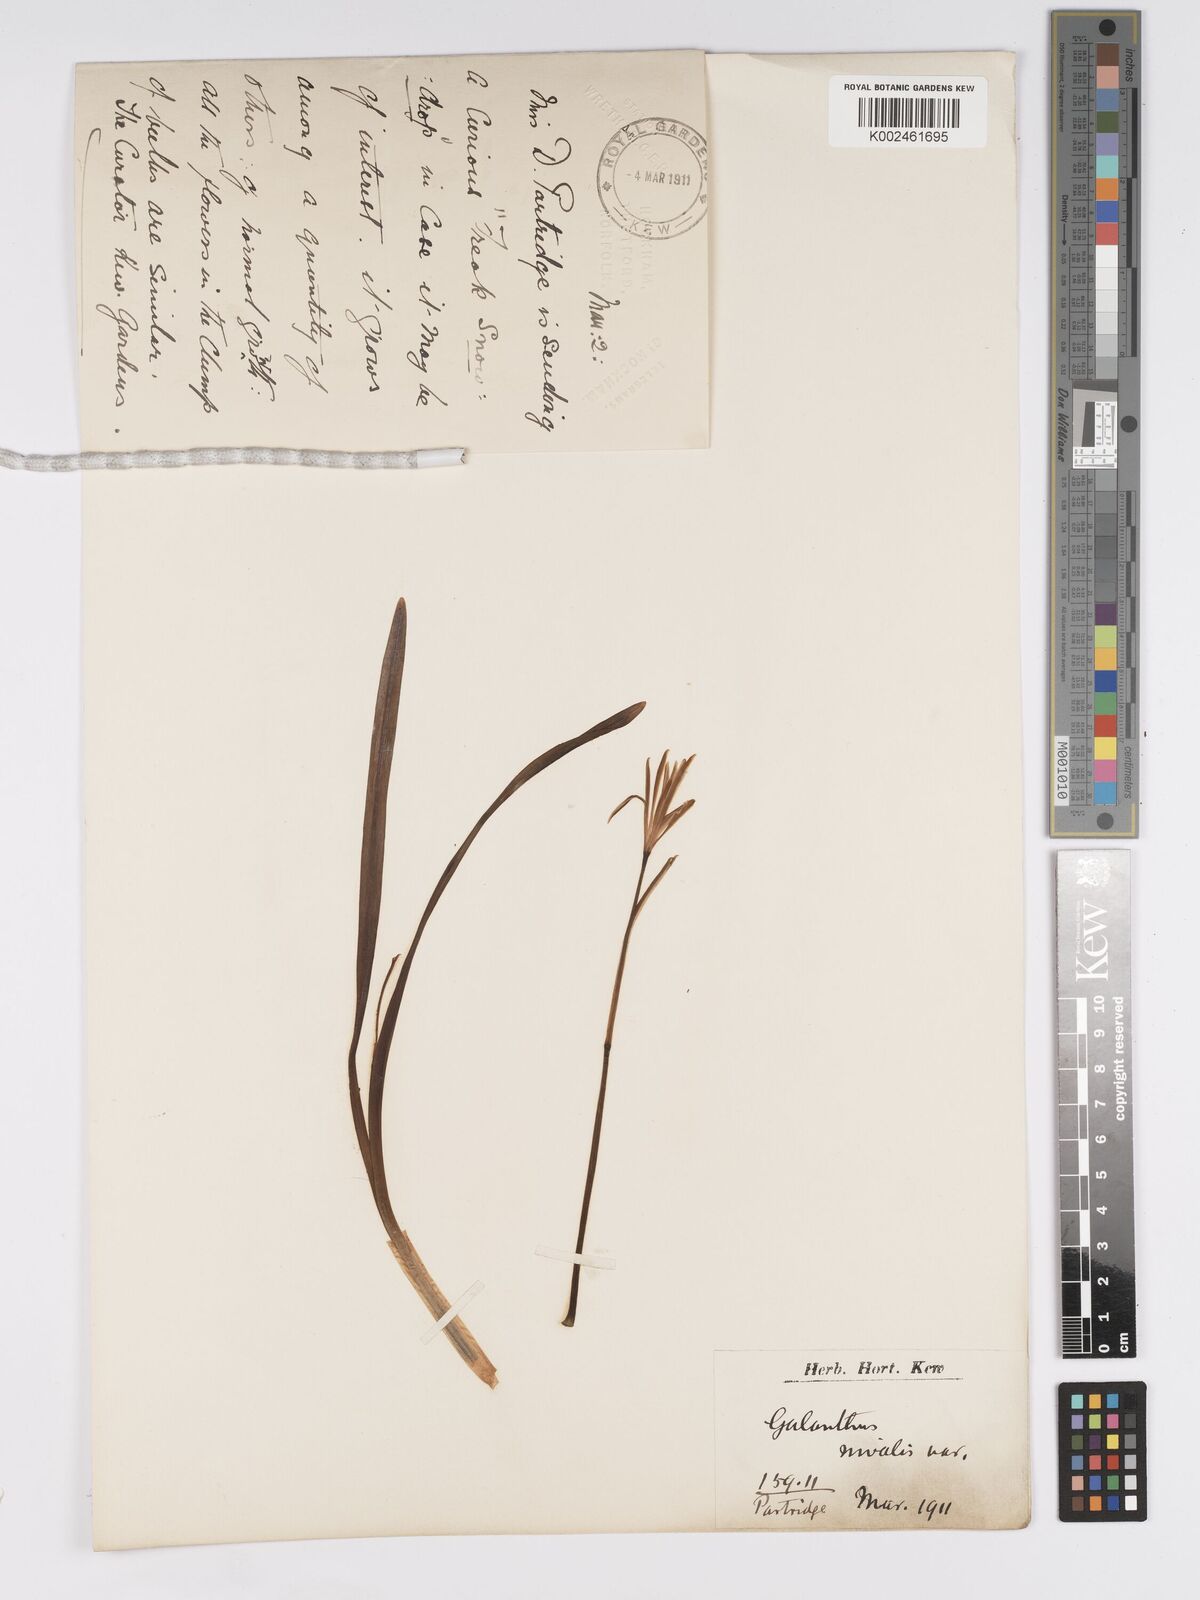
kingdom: Plantae
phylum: Tracheophyta
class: Liliopsida
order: Asparagales
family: Amaryllidaceae
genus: Galanthus
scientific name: Galanthus nivalis
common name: Snowdrop
